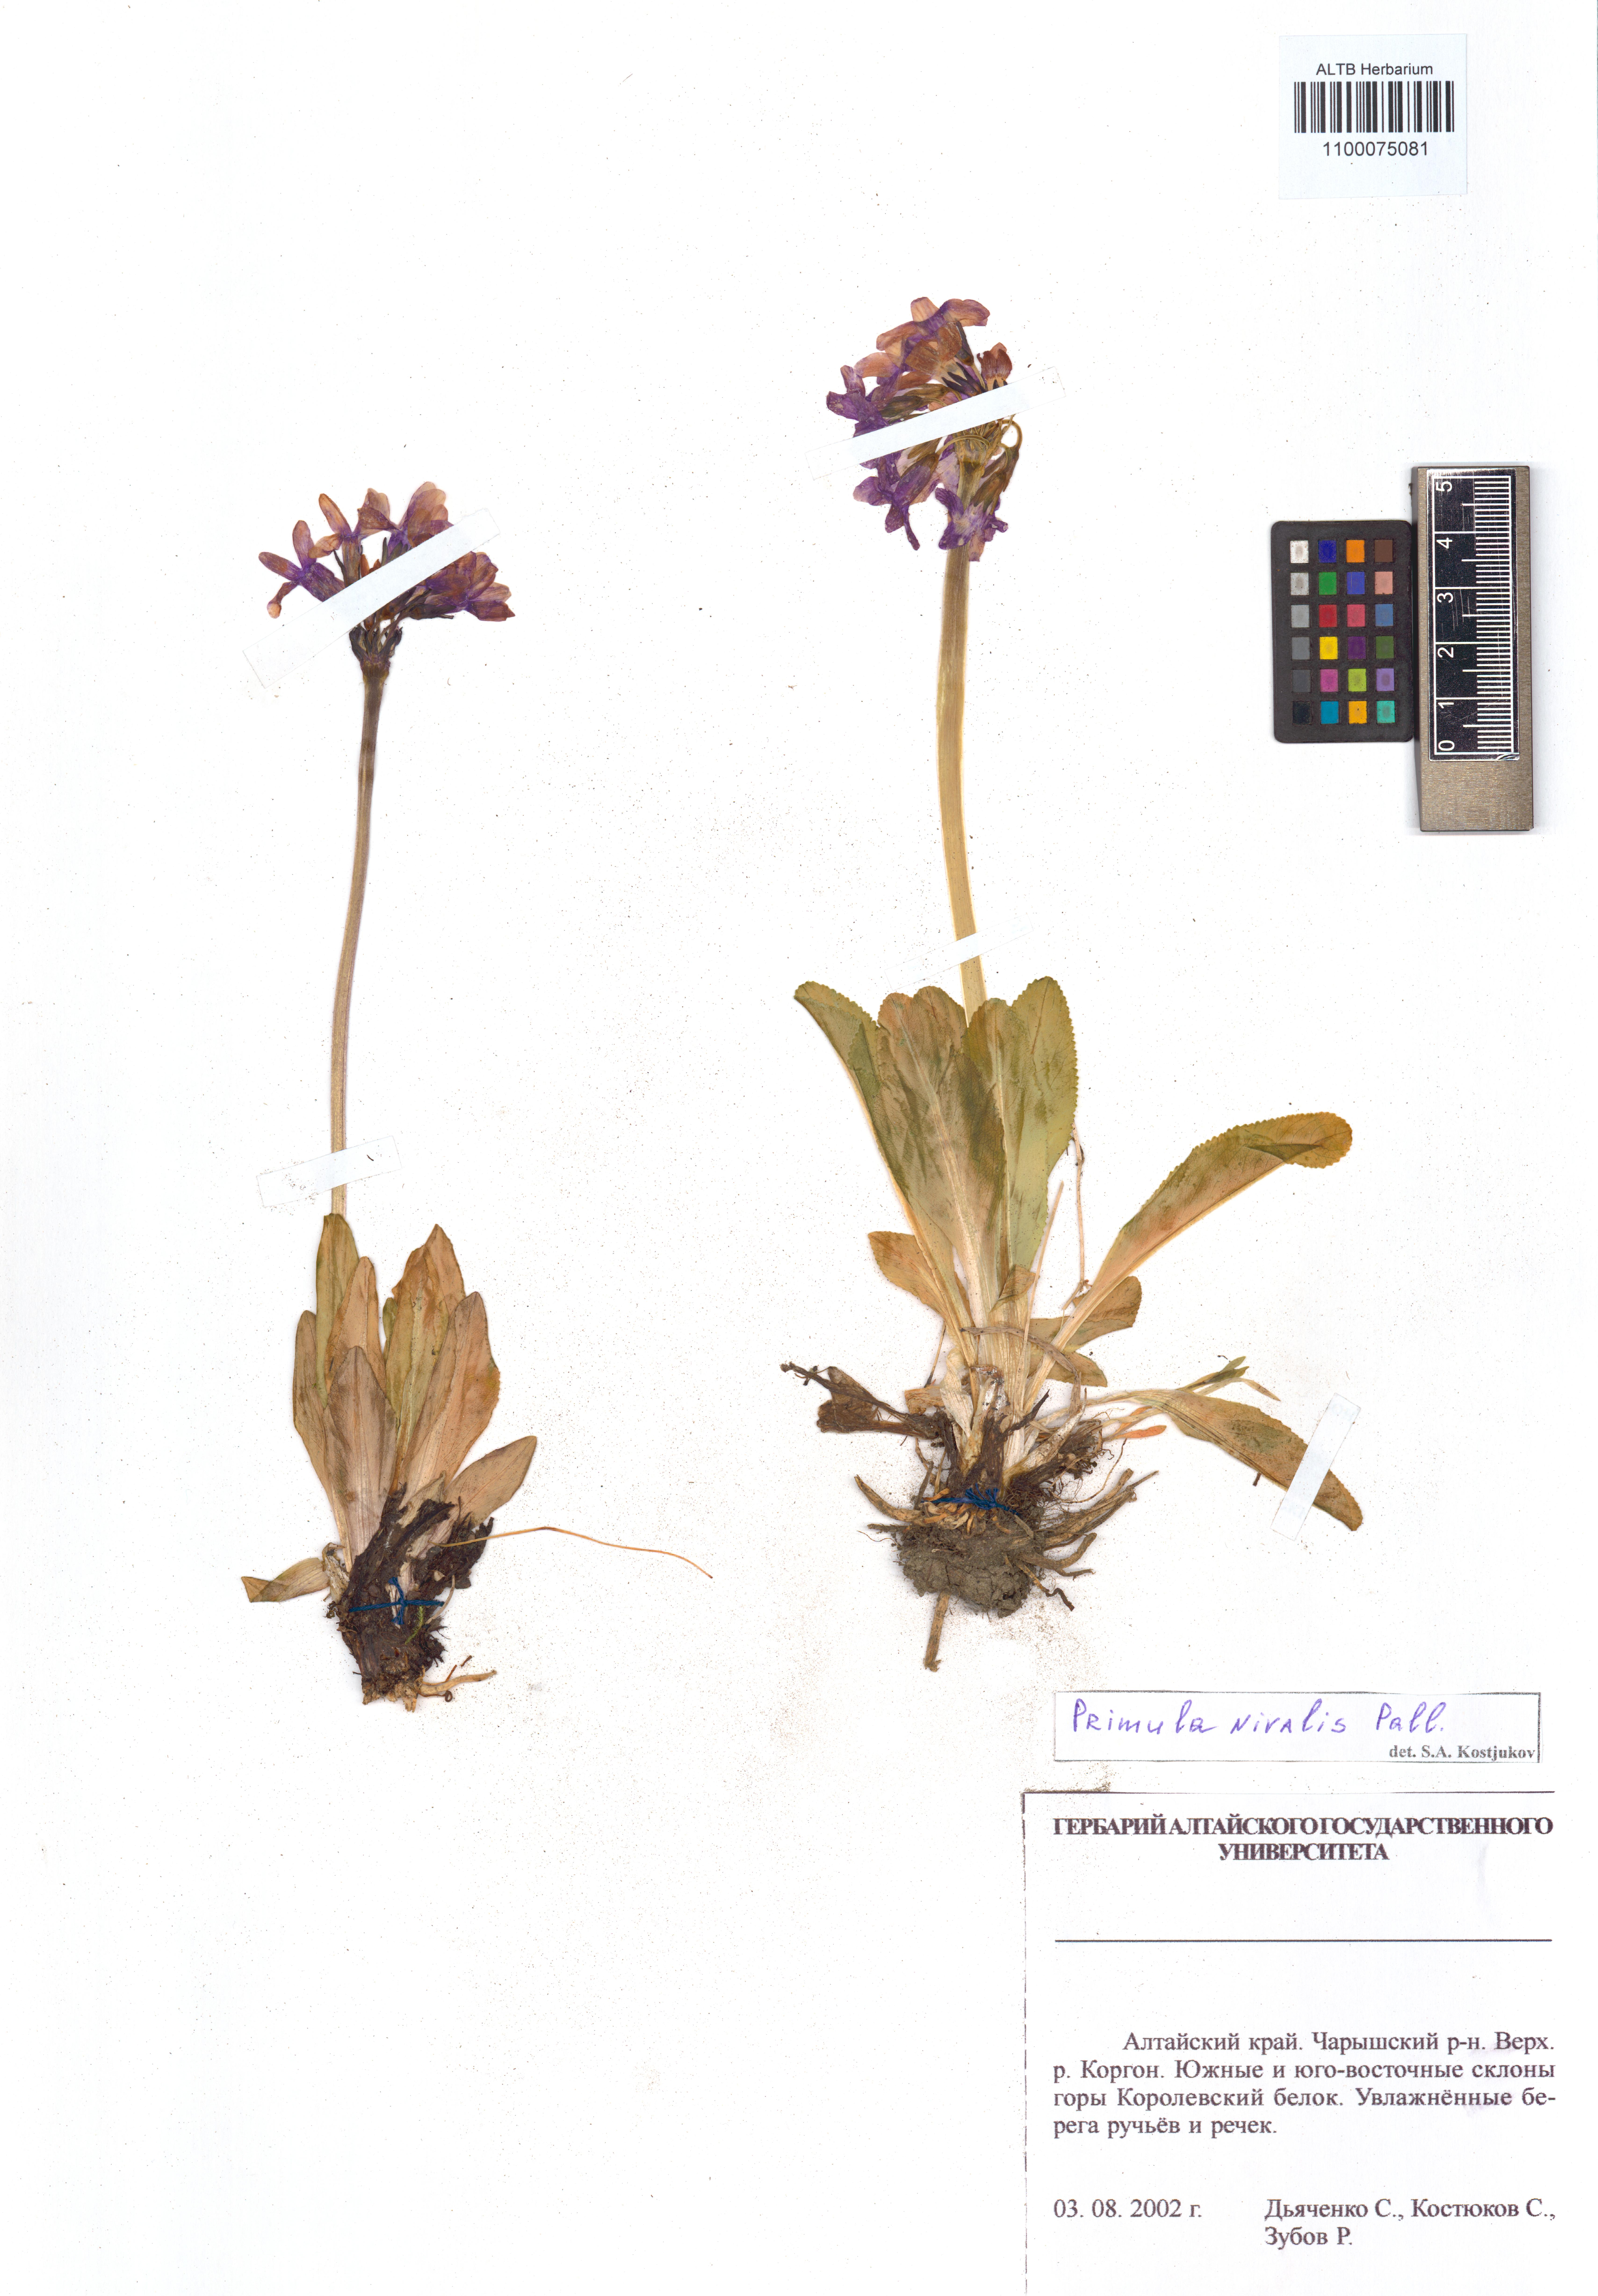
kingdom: Plantae
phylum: Tracheophyta
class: Magnoliopsida
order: Ericales
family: Primulaceae
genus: Primula
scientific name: Primula nivalis
